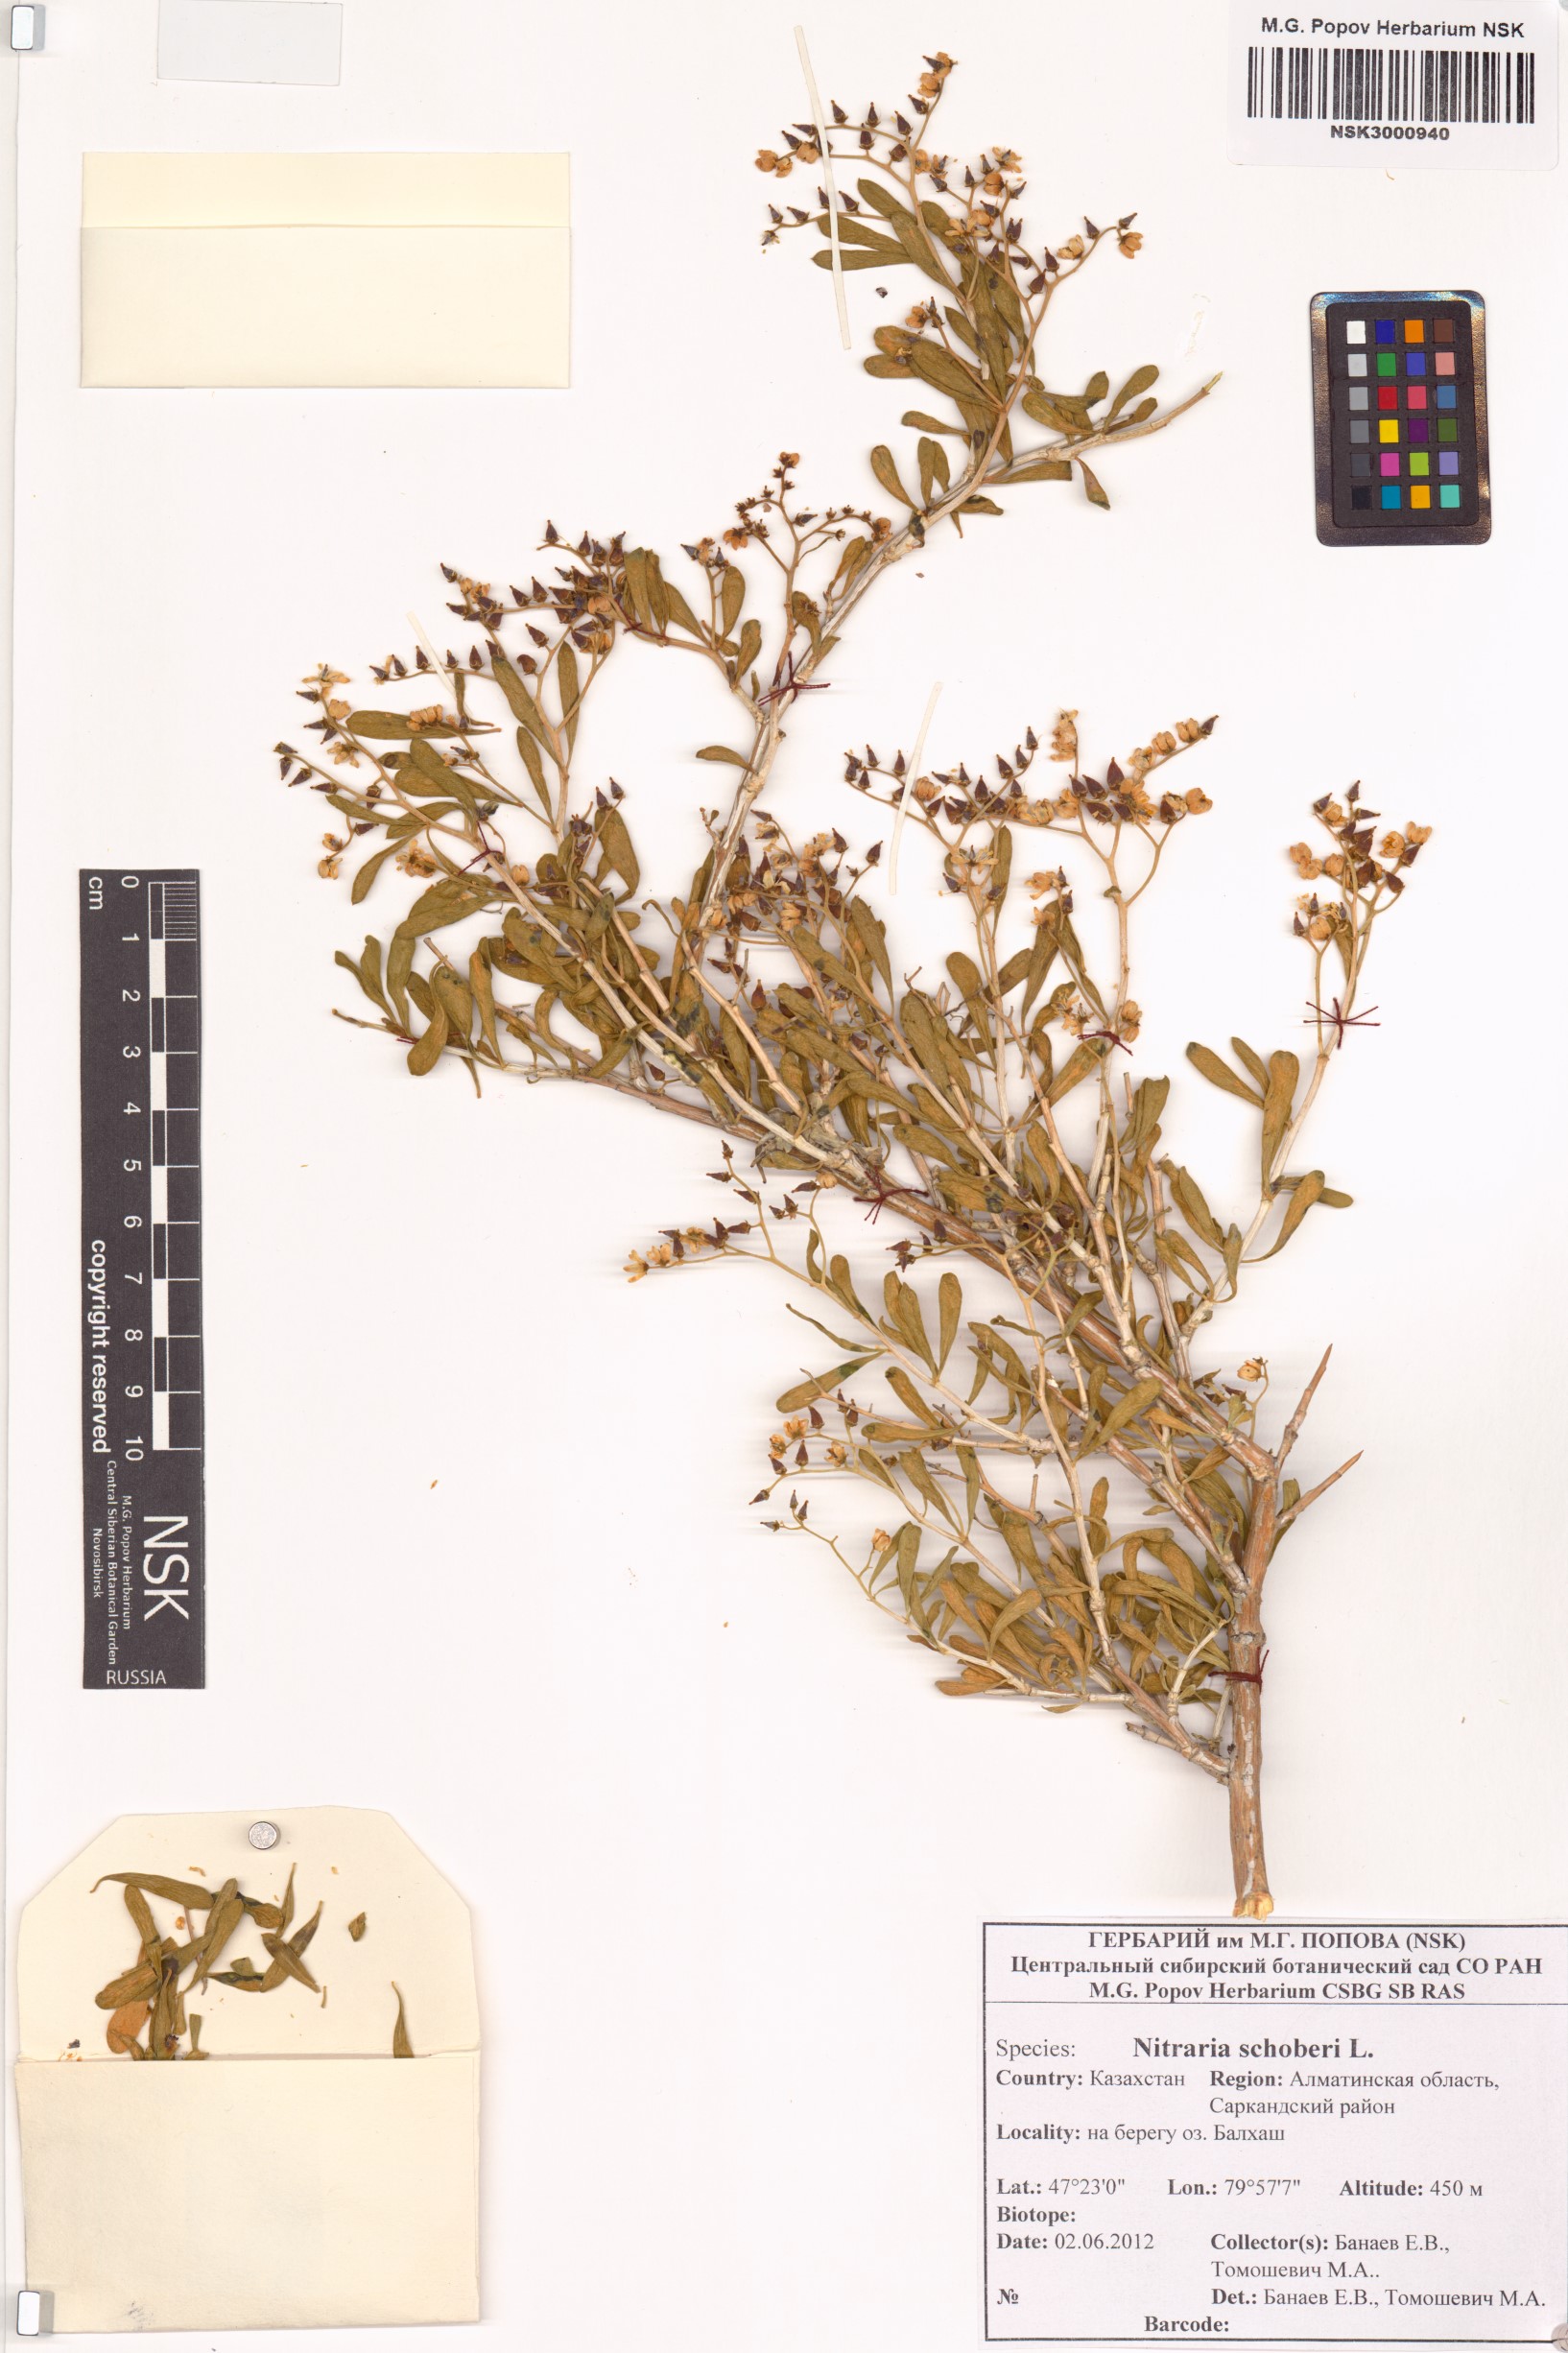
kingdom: Plantae
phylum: Tracheophyta
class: Magnoliopsida
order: Sapindales
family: Nitrariaceae
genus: Nitraria
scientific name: Nitraria schoberi
